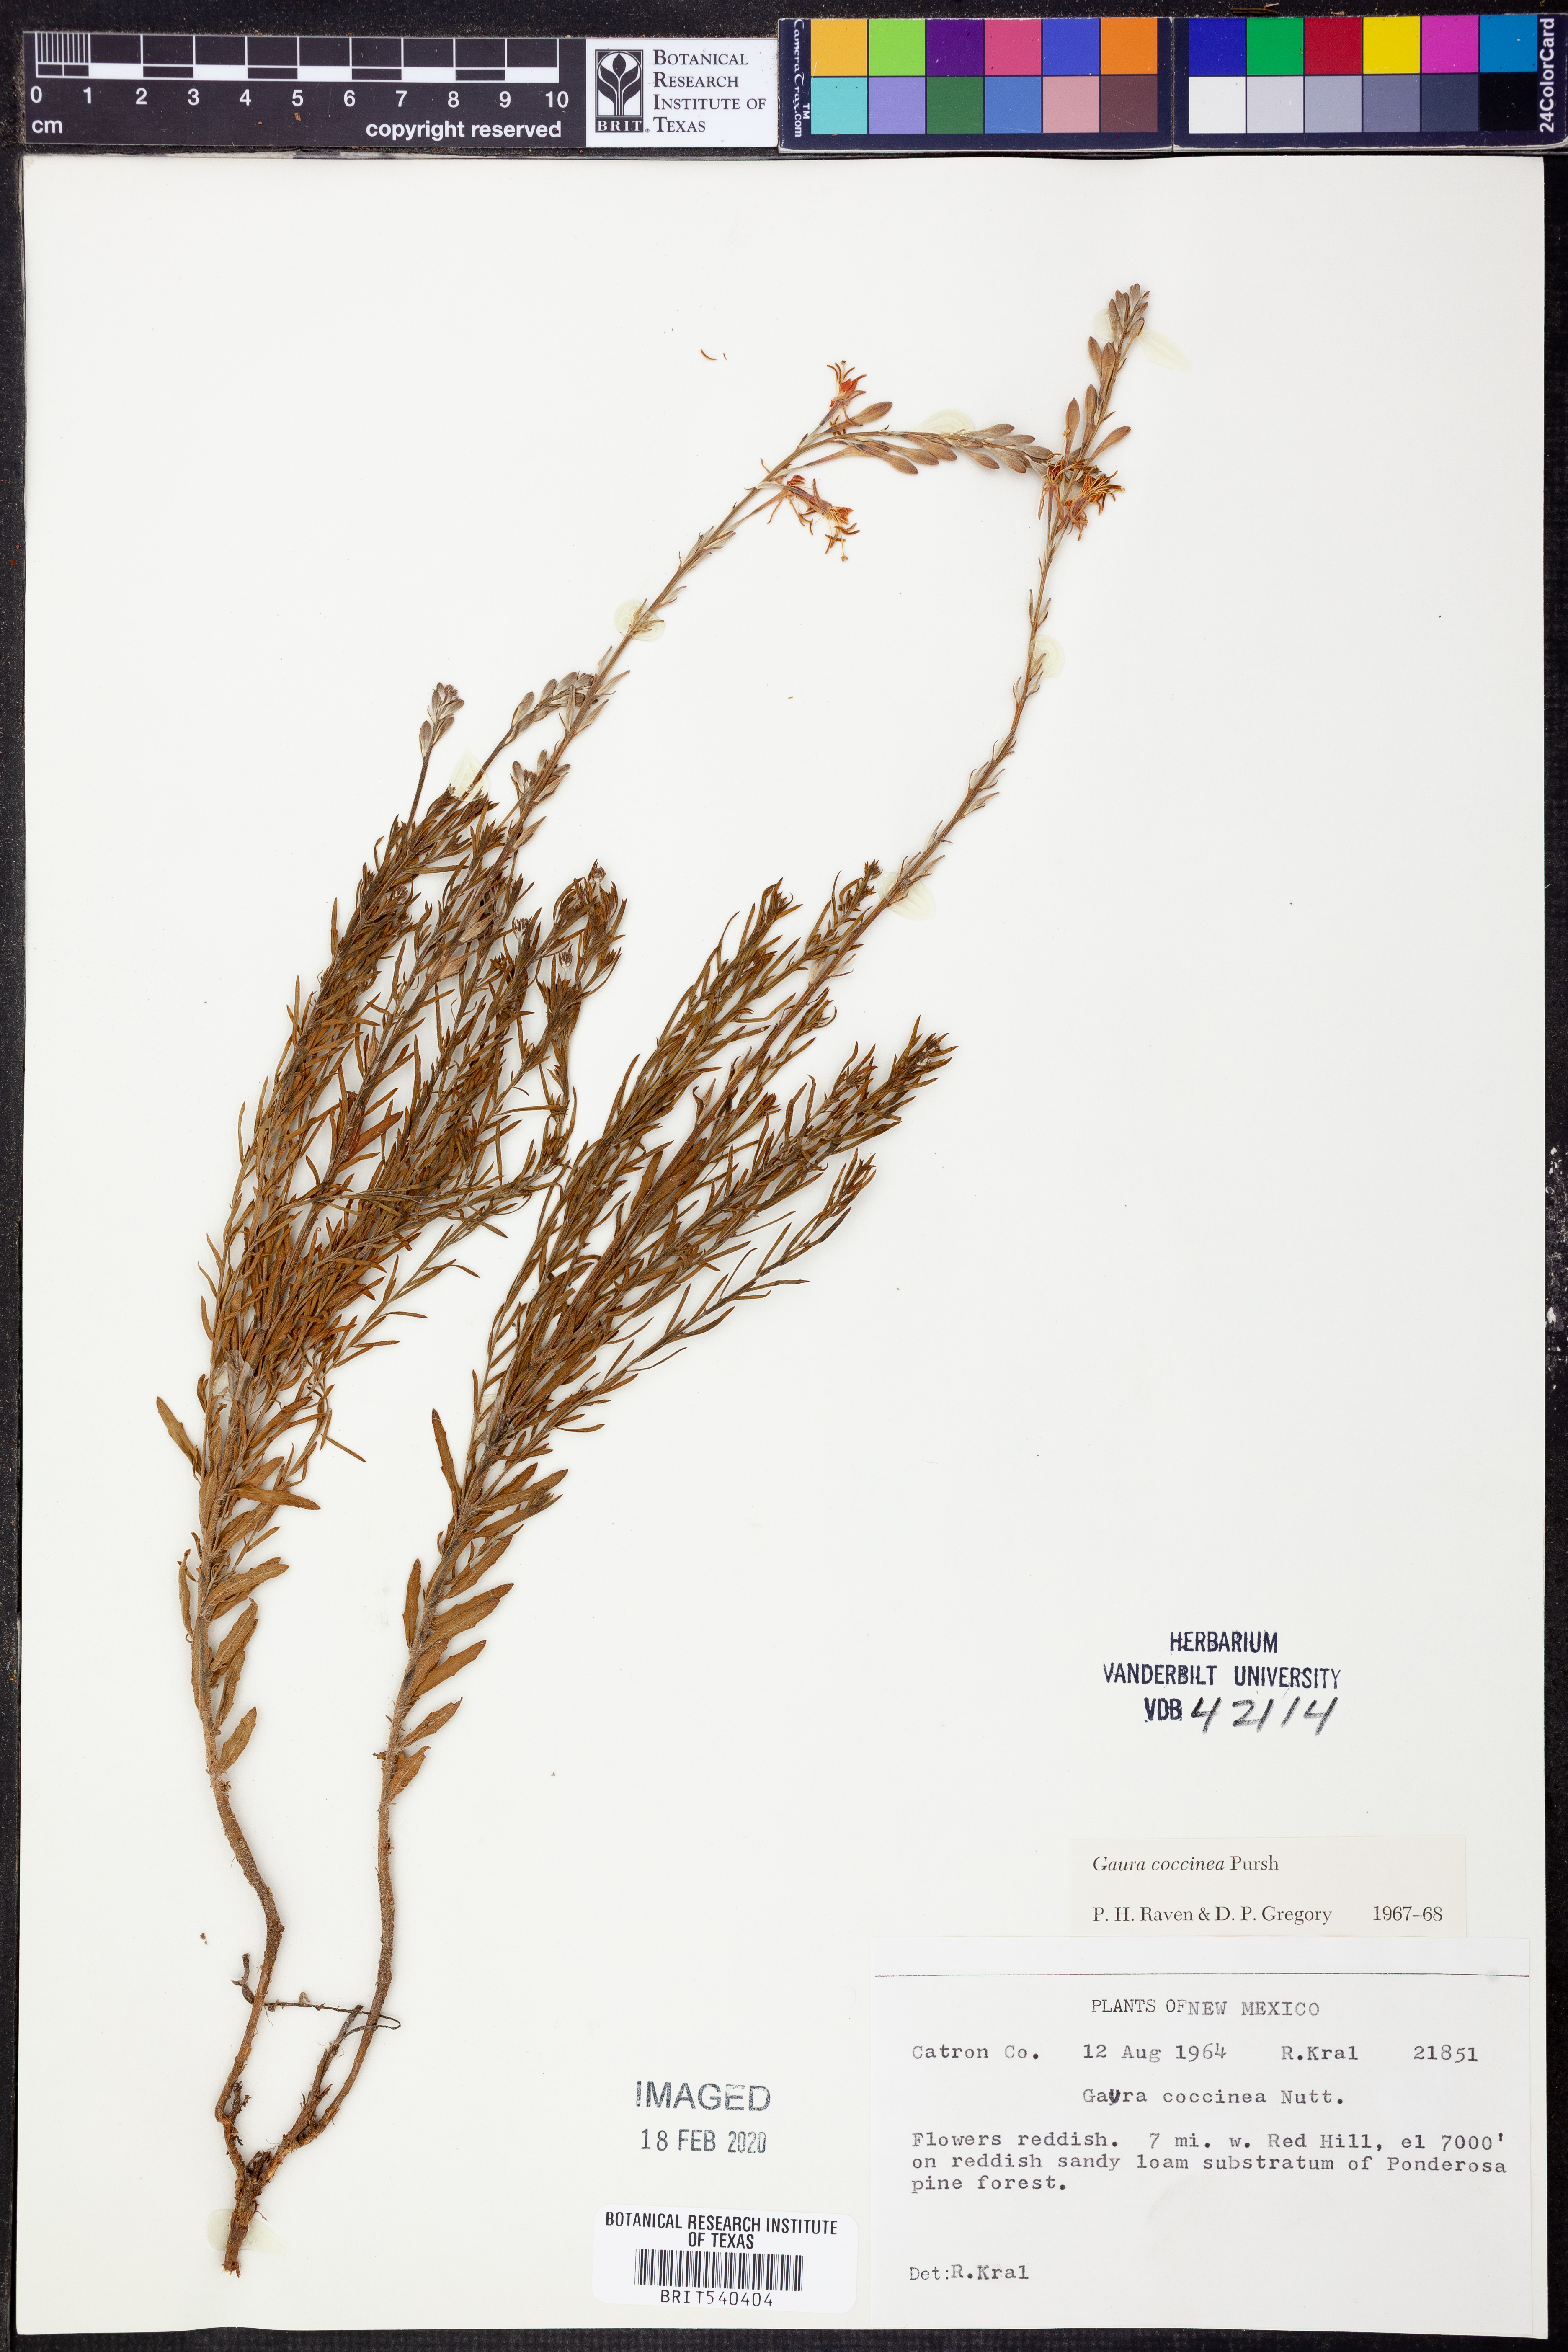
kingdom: Plantae
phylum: Tracheophyta
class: Magnoliopsida
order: Myrtales
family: Onagraceae
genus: Oenothera
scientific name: Oenothera suffrutescens
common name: Scarlet beeblossom
